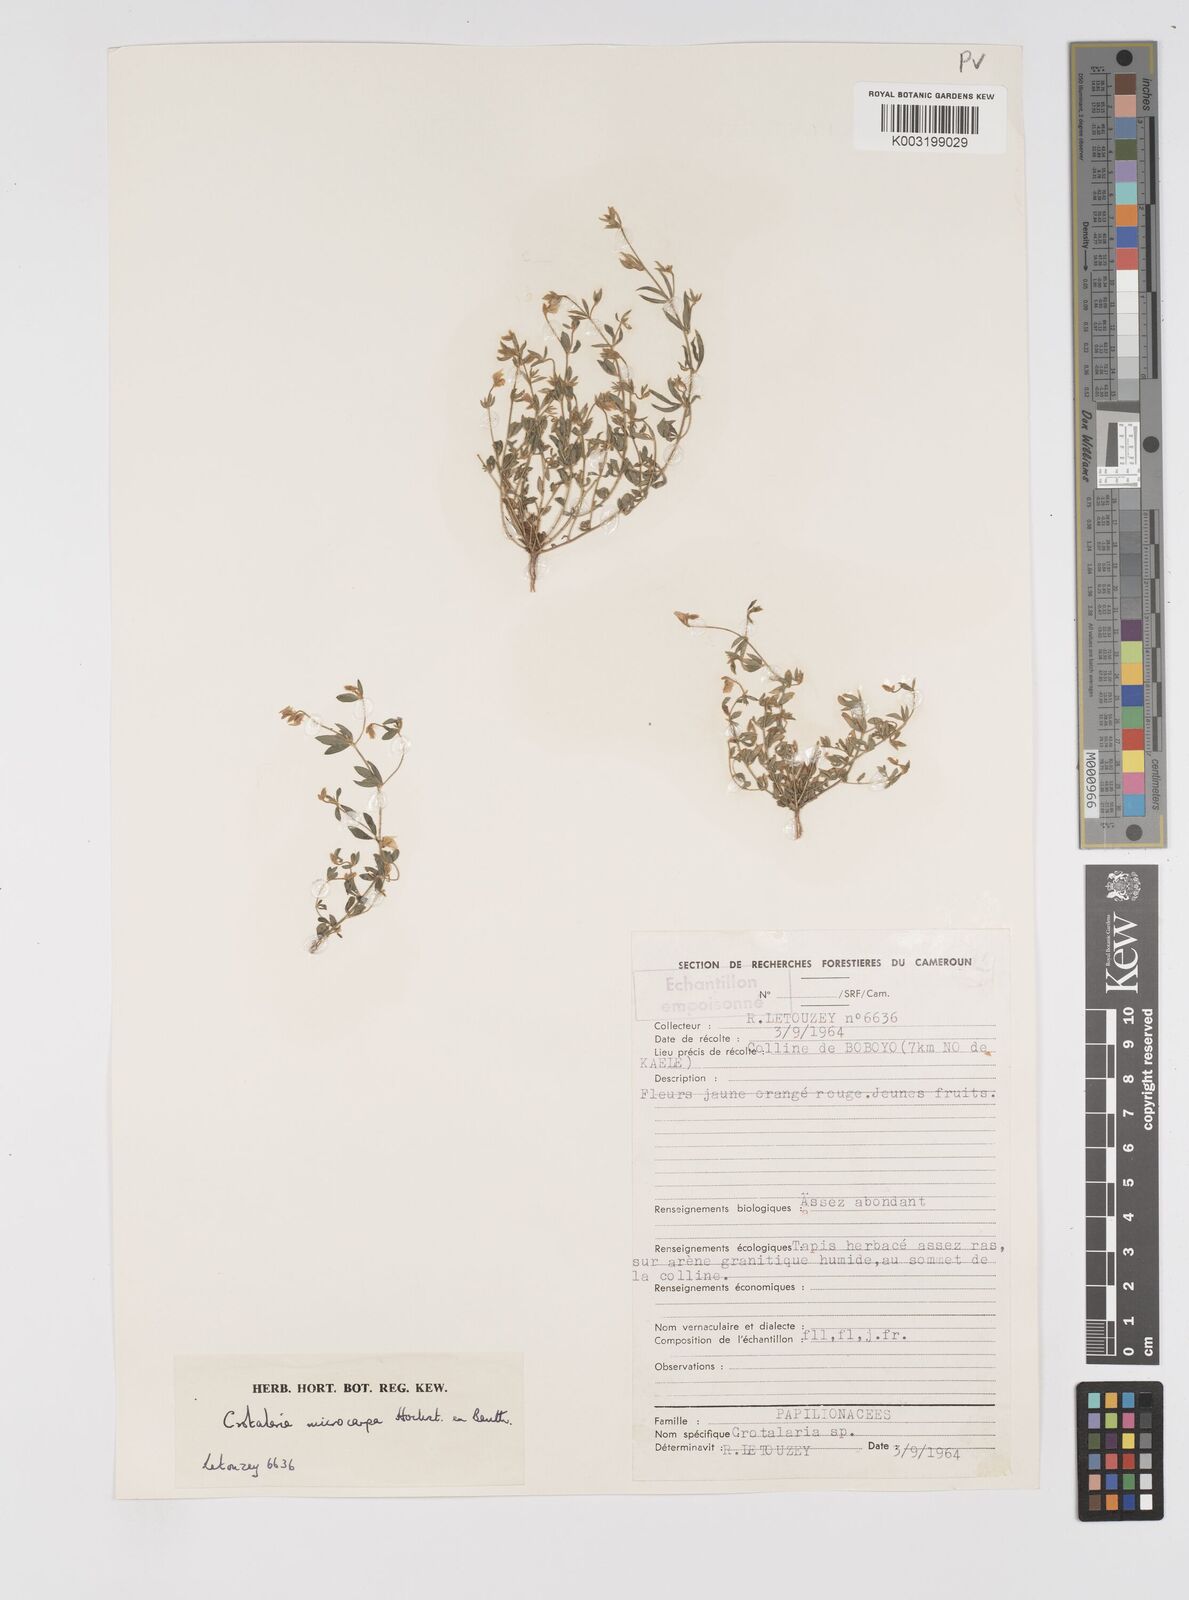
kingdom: Plantae
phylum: Tracheophyta
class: Magnoliopsida
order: Fabales
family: Fabaceae
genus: Crotalaria
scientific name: Crotalaria microcarpa
